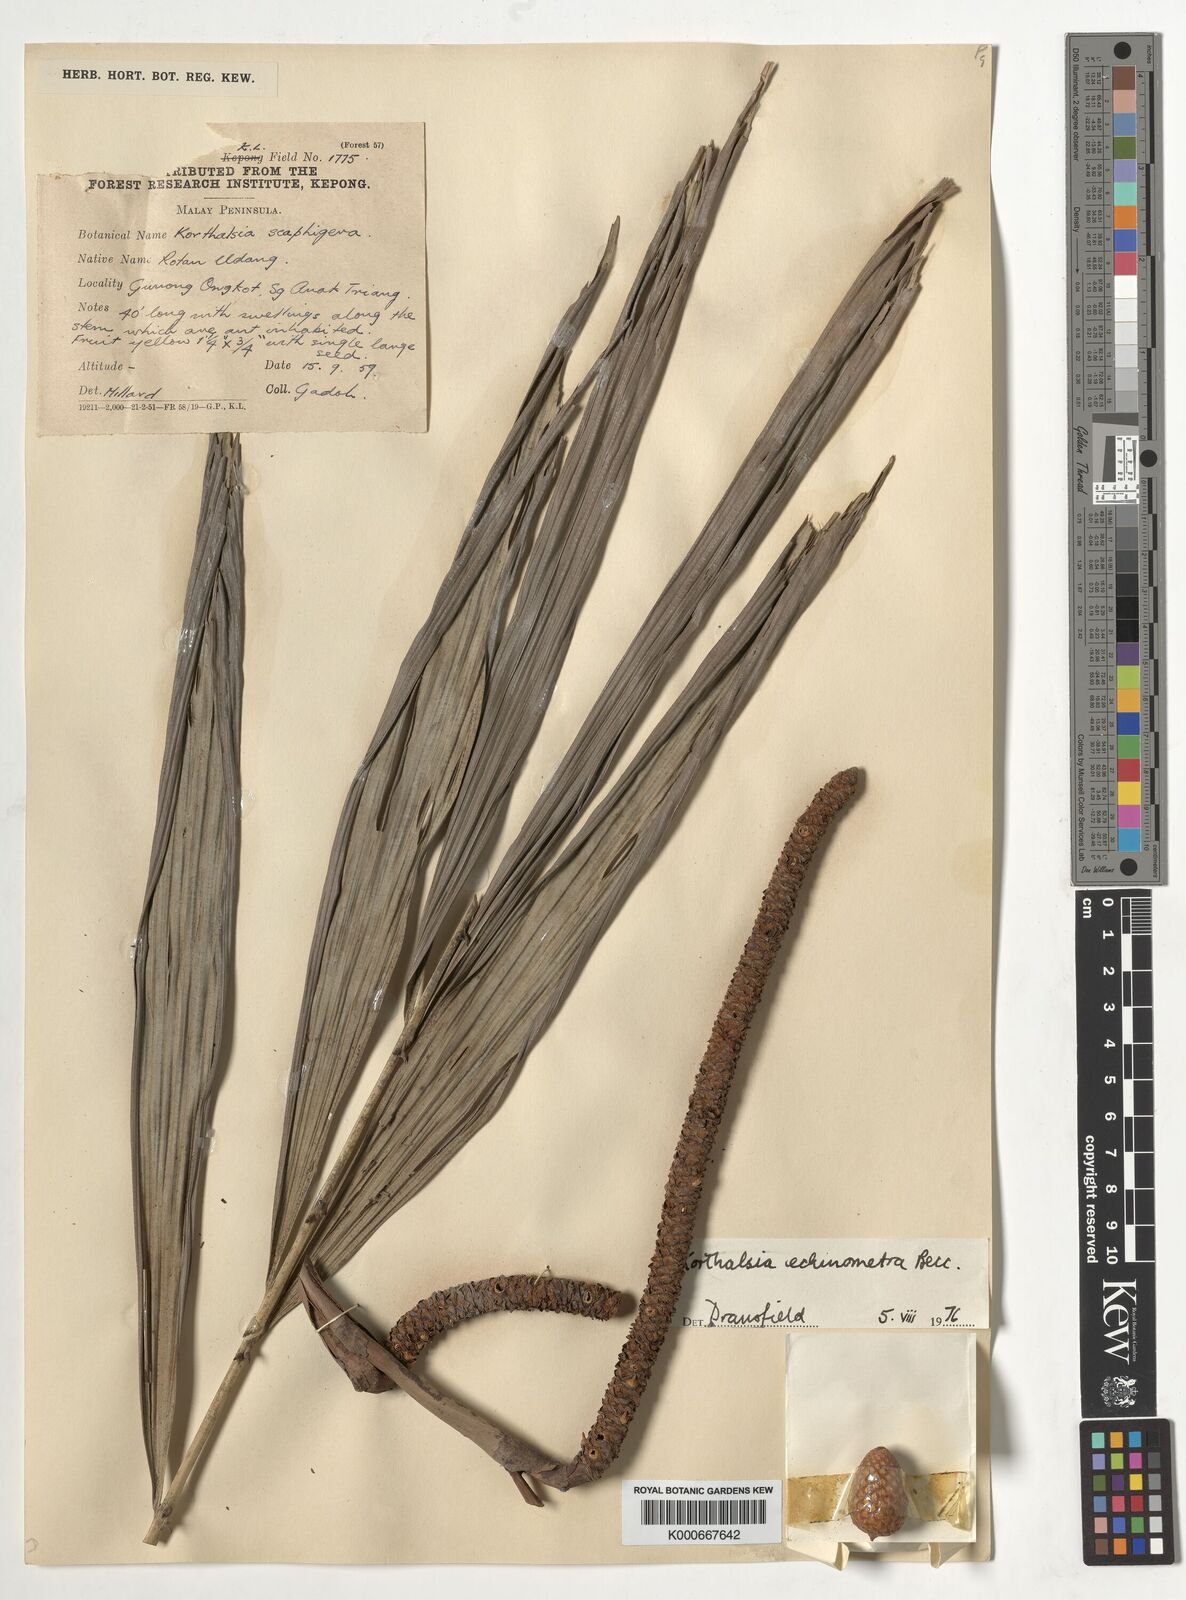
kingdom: Plantae
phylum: Tracheophyta
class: Liliopsida
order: Arecales
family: Arecaceae
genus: Korthalsia
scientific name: Korthalsia echinometra
